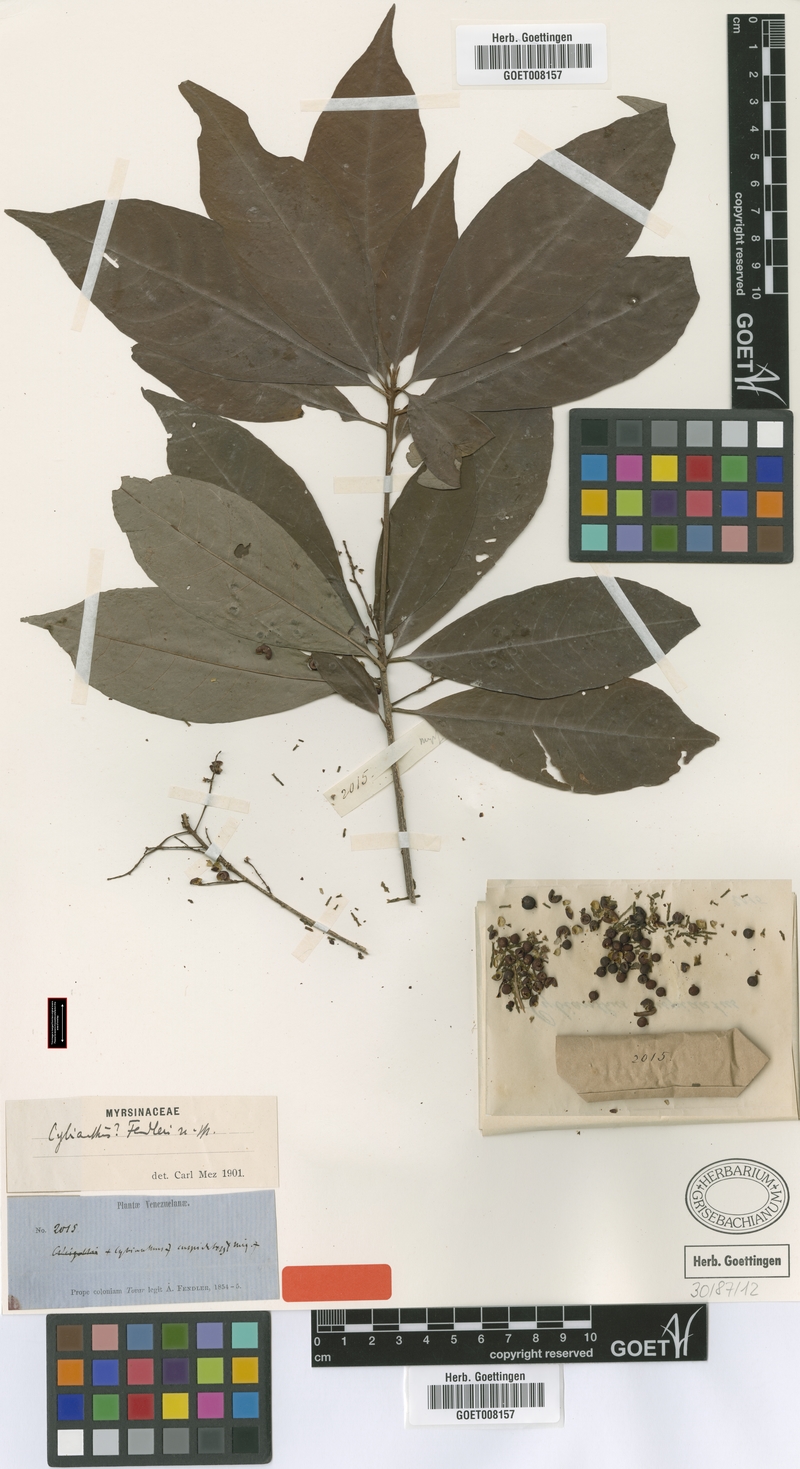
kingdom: Plantae
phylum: Tracheophyta
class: Magnoliopsida
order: Ericales
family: Primulaceae
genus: Cybianthus
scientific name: Cybianthus fendleri
